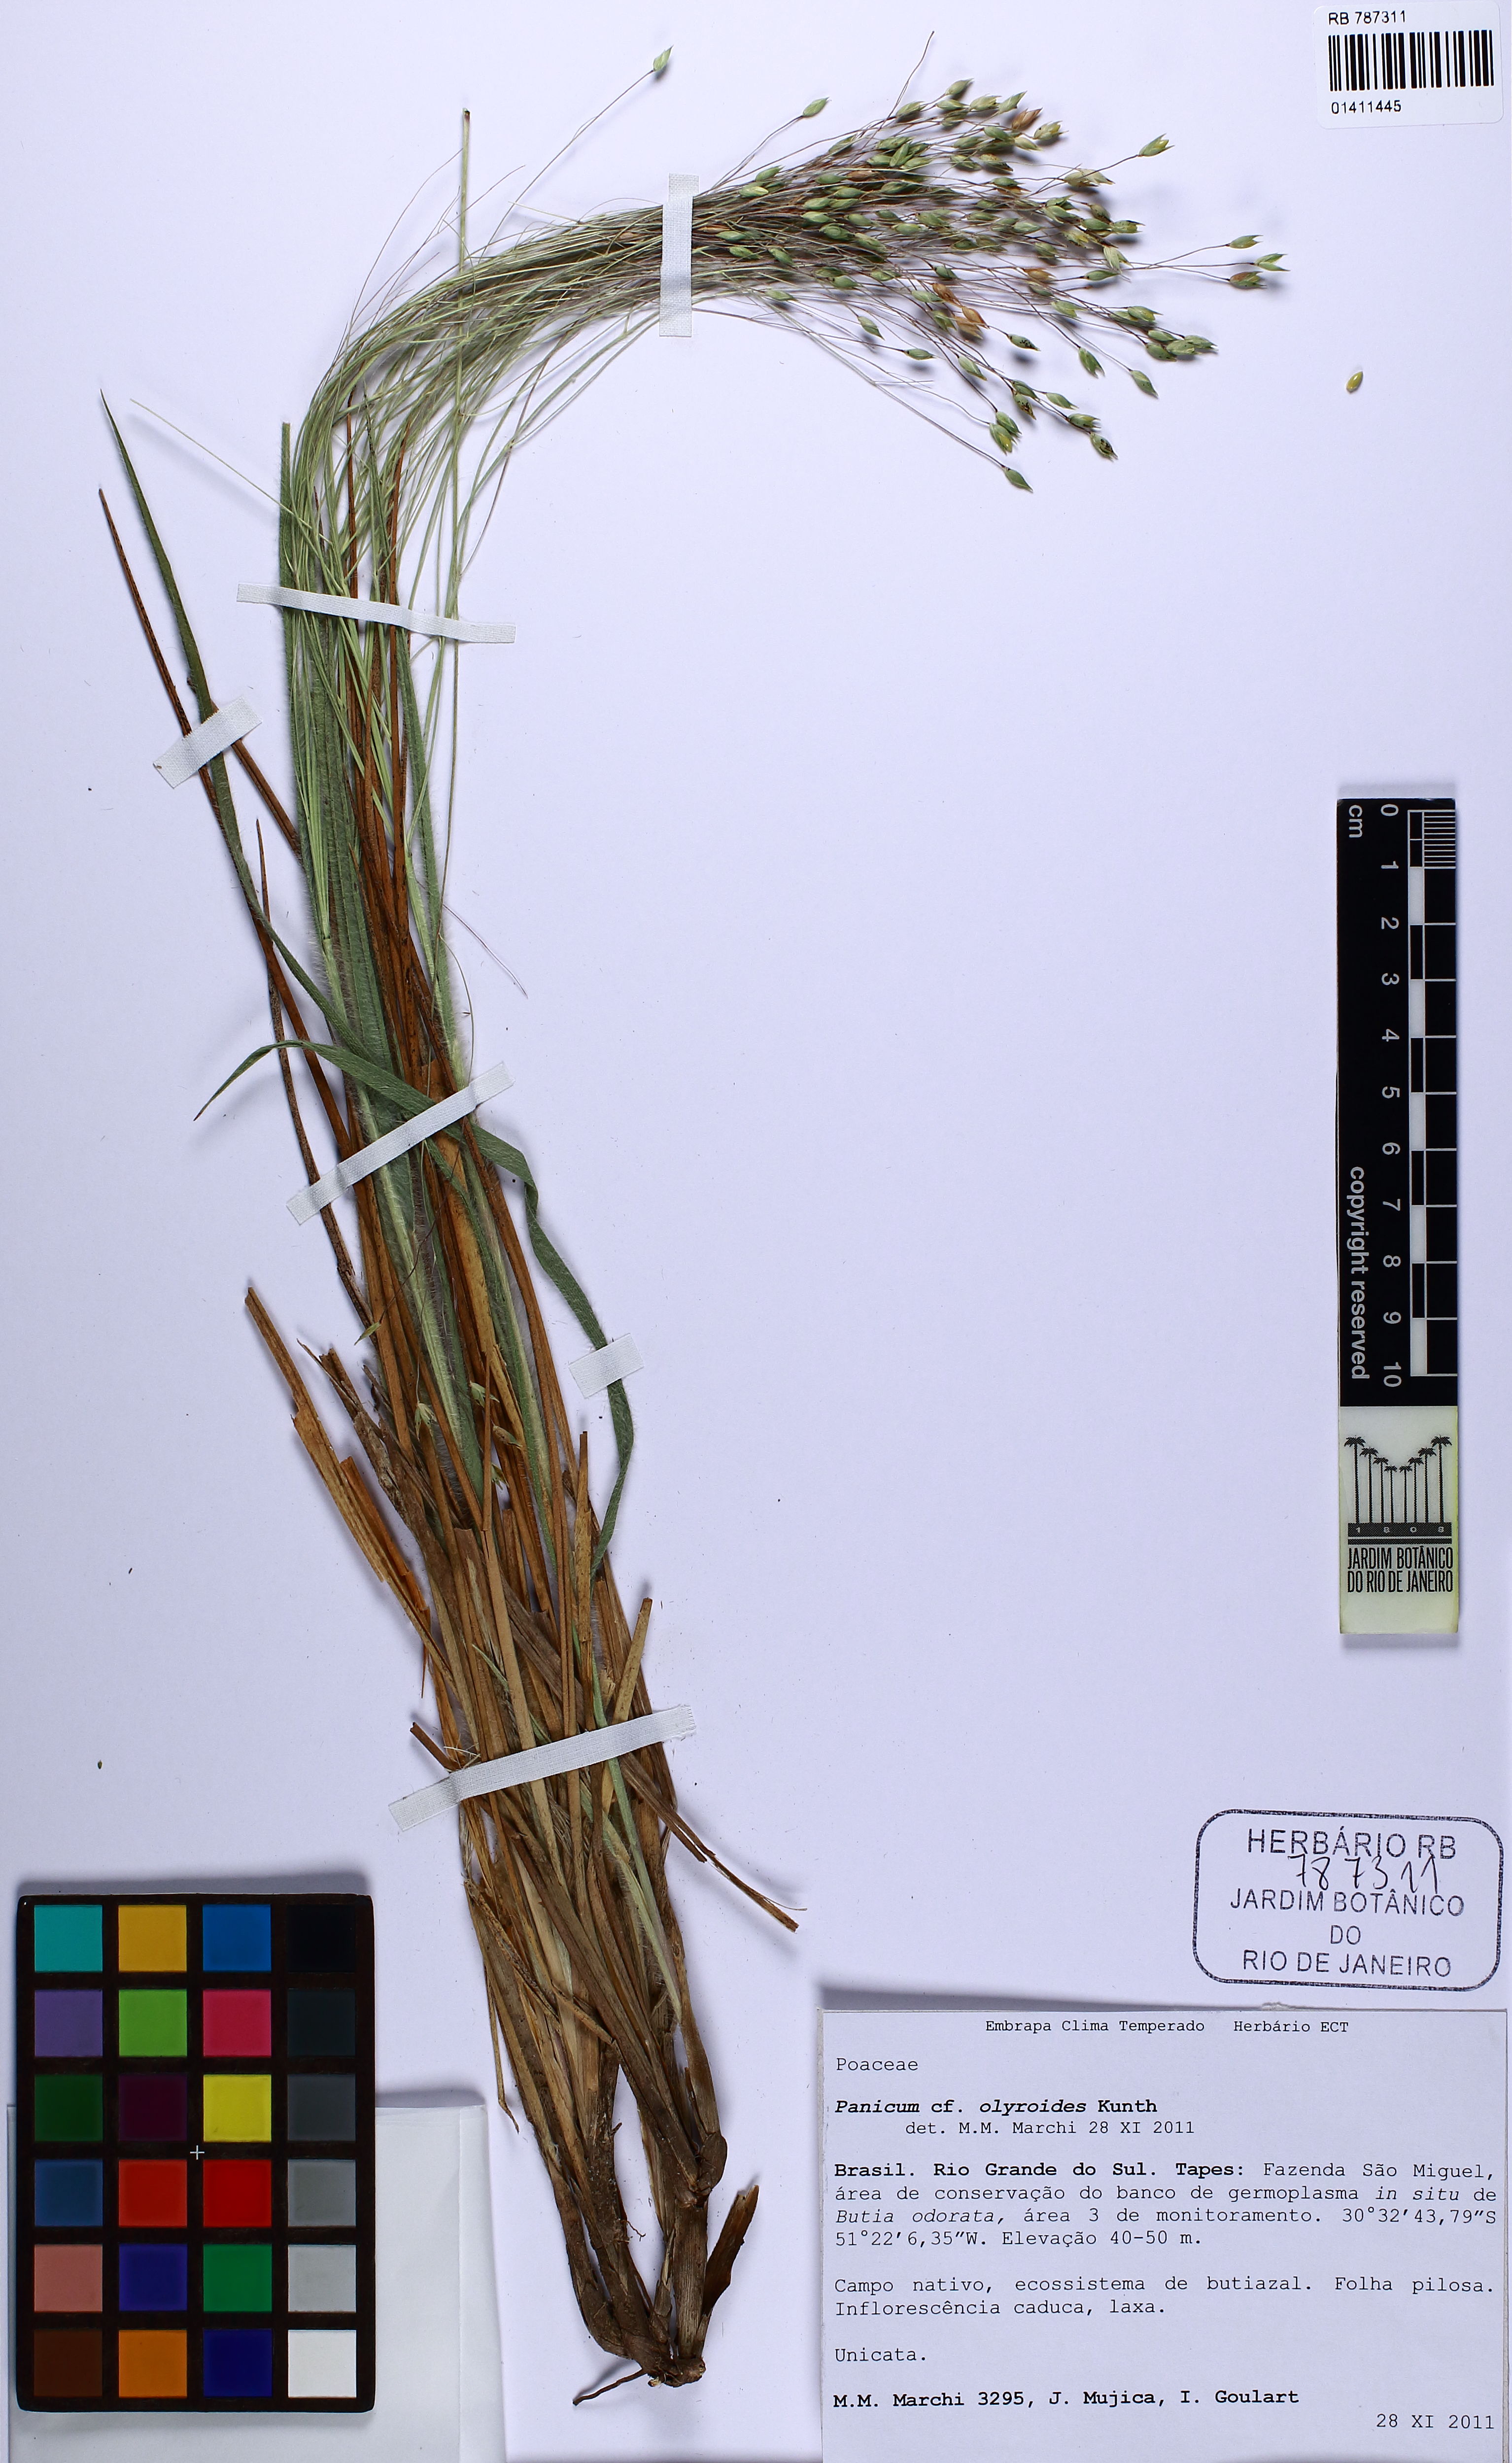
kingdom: Plantae
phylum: Tracheophyta
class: Liliopsida
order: Poales
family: Poaceae
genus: Panicum
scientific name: Panicum olyroides
